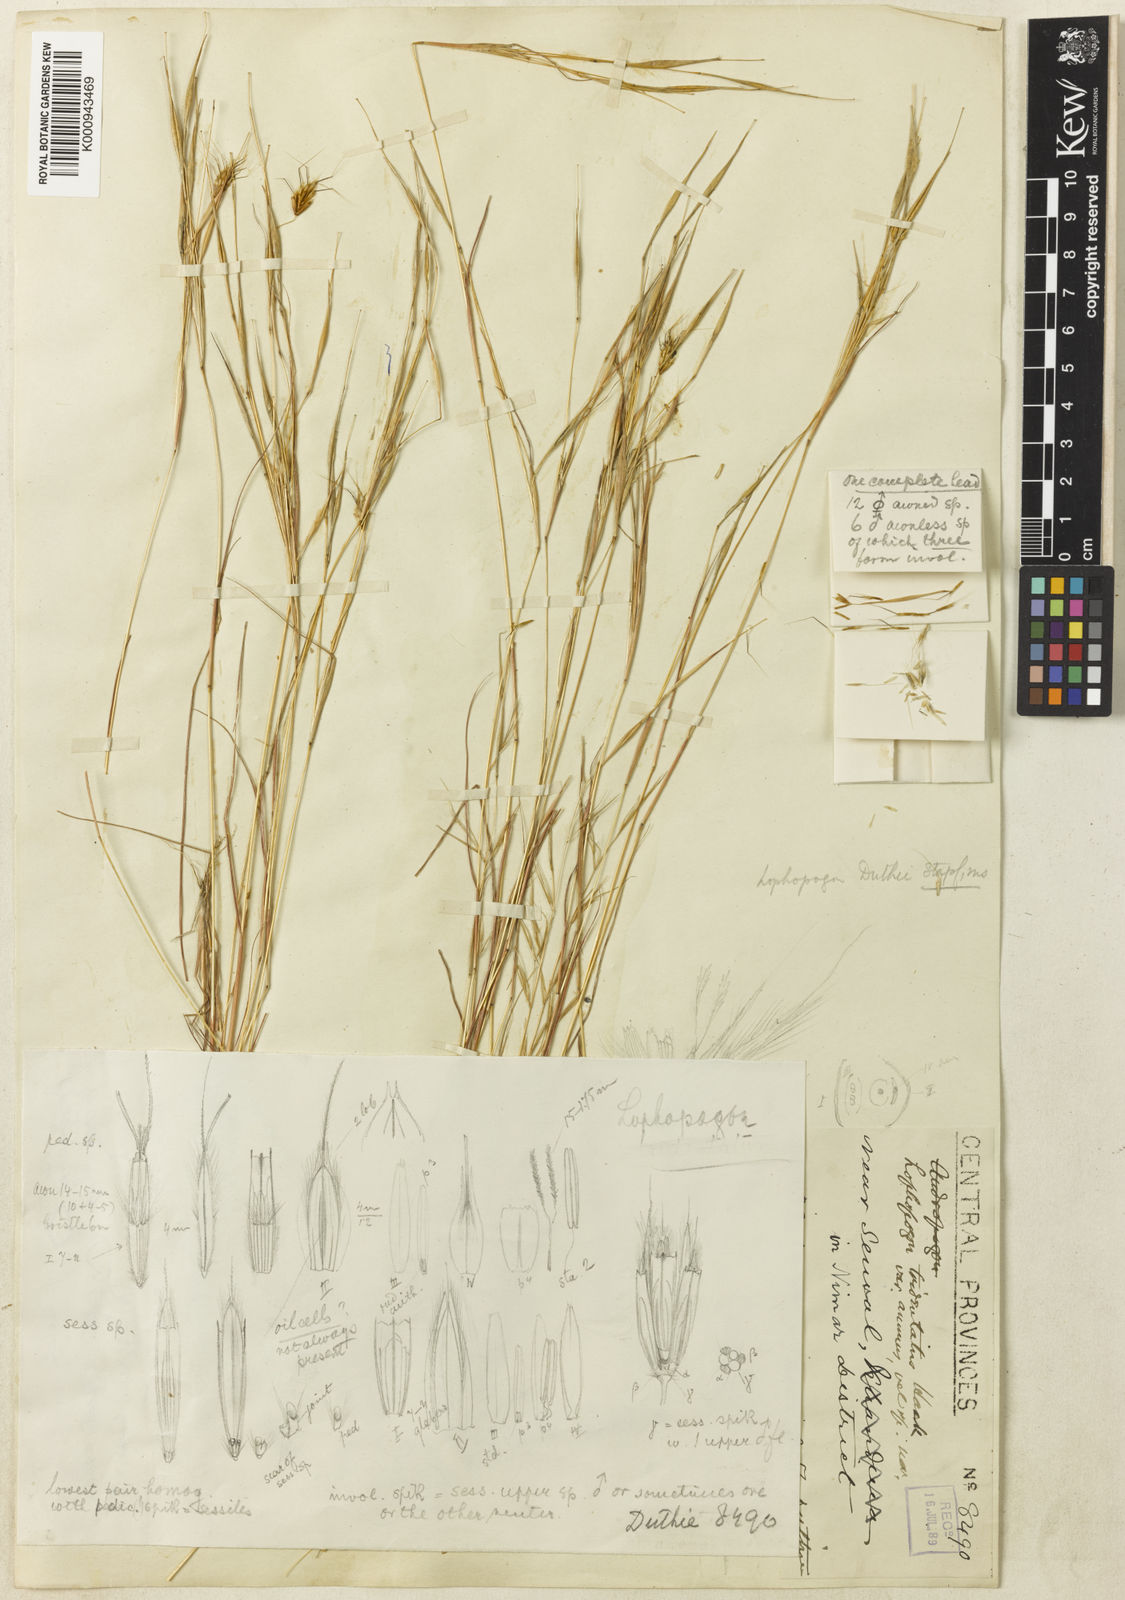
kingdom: Plantae
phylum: Tracheophyta
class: Liliopsida
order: Poales
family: Poaceae
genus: Lophopogon
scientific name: Lophopogon tridentatus
